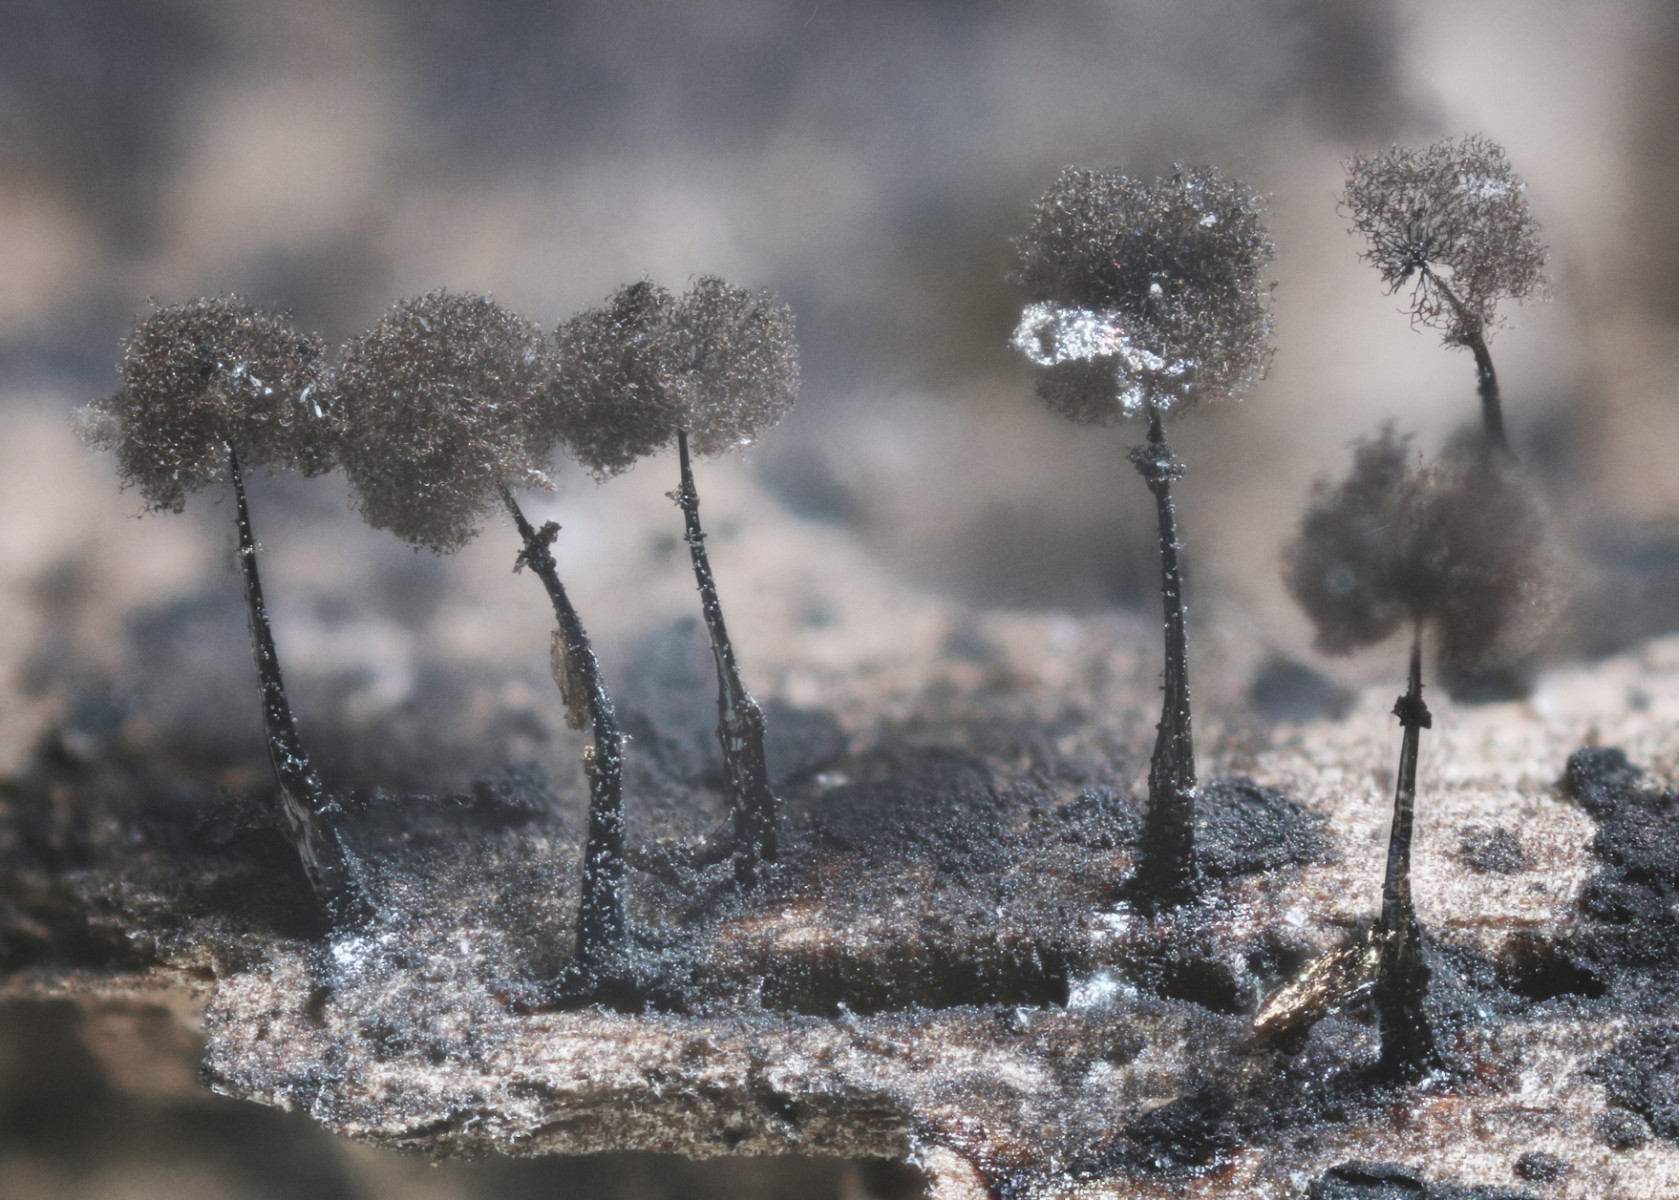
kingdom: Protozoa
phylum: Mycetozoa
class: Myxomycetes
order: Stemonitidales
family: Stemonitidaceae
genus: Collaria
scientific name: Collaria arcyrionema
